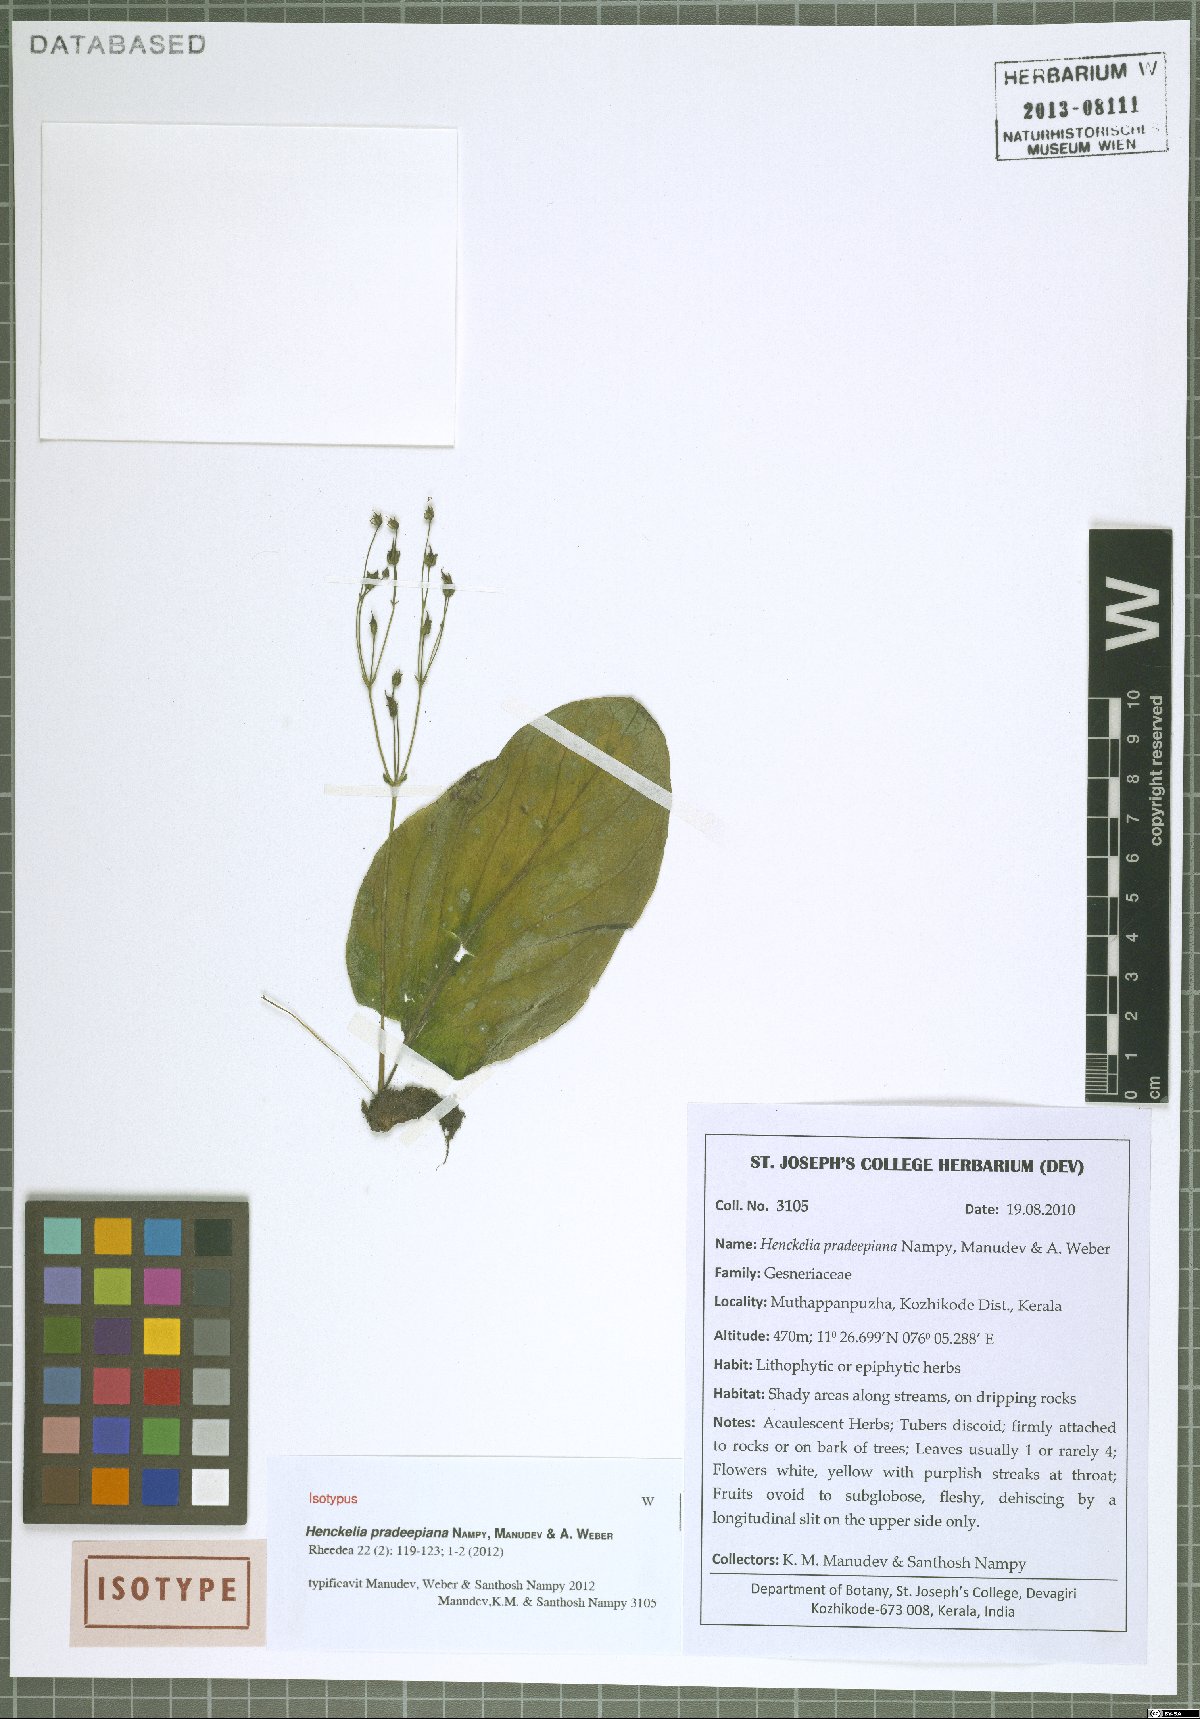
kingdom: Plantae
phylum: Tracheophyta
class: Magnoliopsida
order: Lamiales
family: Gesneriaceae
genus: Henckelia
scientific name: Henckelia pradeepiana
